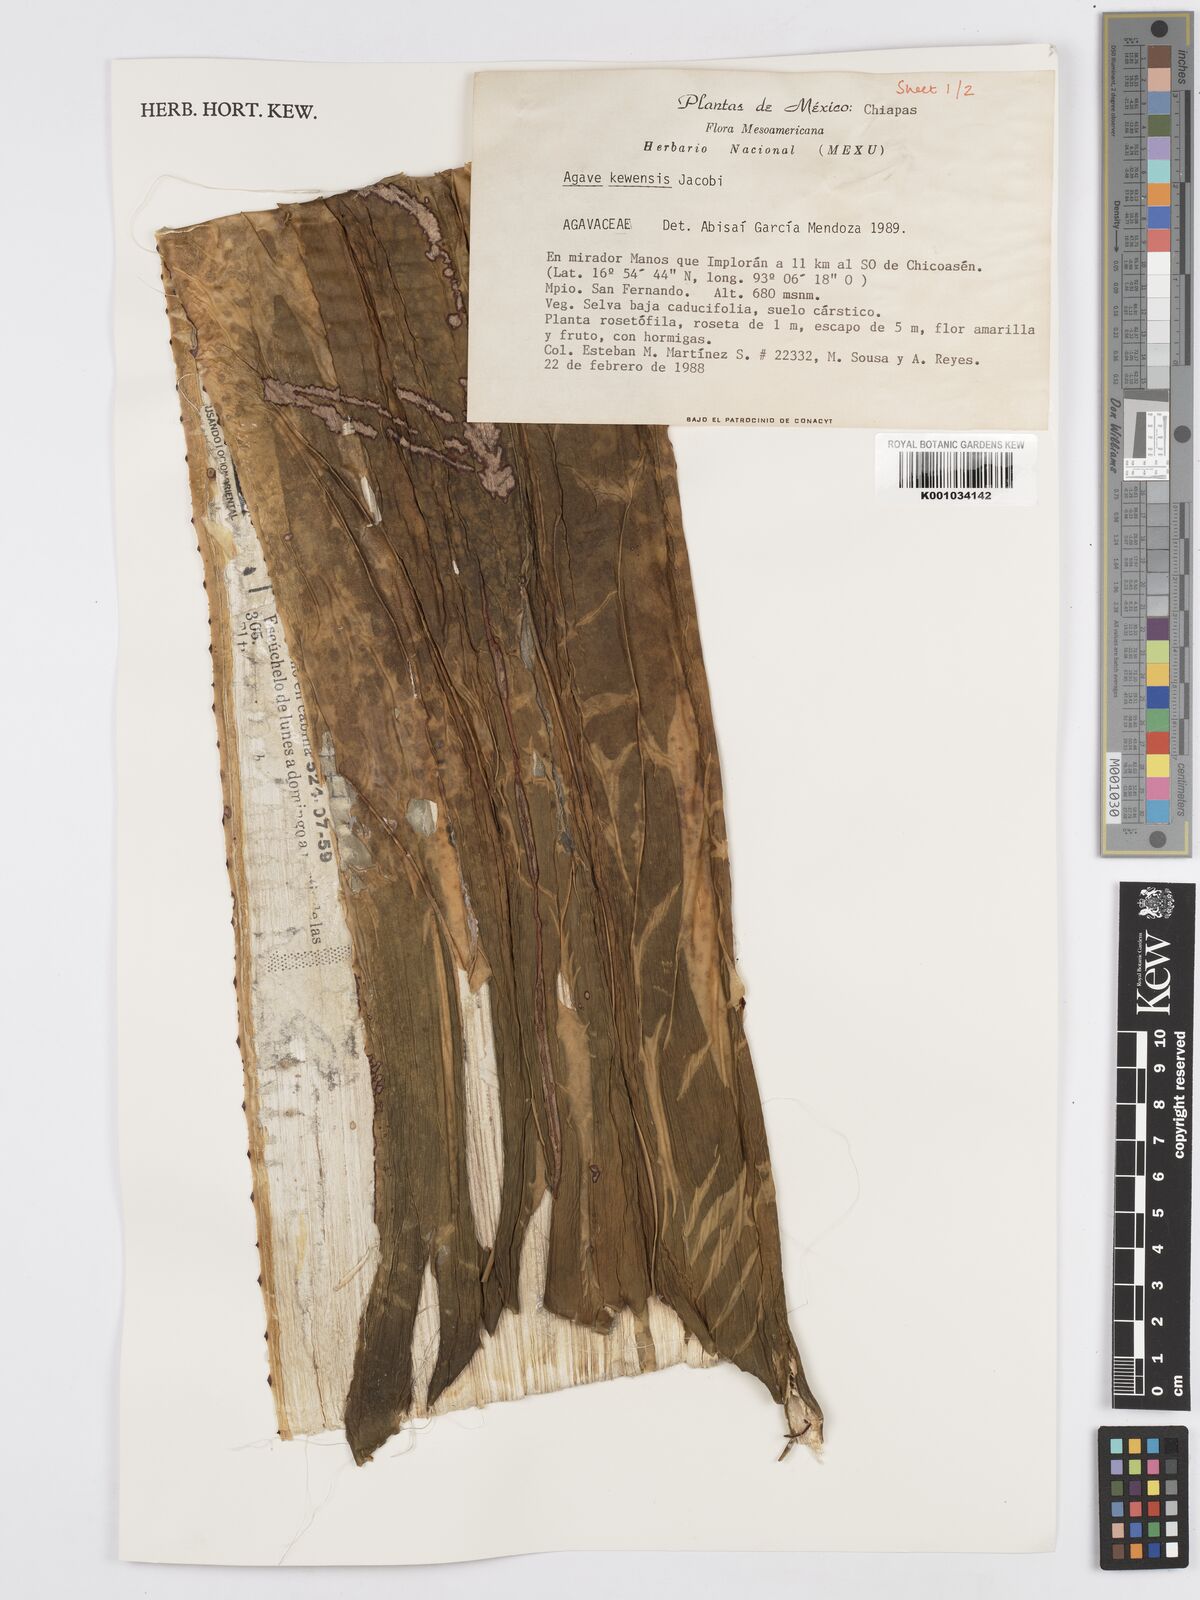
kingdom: Plantae
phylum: Tracheophyta
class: Liliopsida
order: Asparagales
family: Asparagaceae
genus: Agave
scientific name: Agave kewensis
